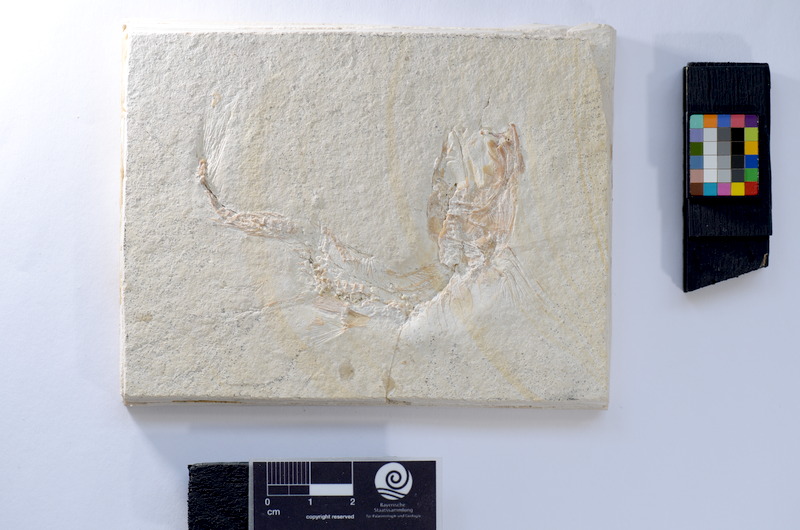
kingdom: Animalia
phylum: Chordata
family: Ascalaboidae
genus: Tharsis
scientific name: Tharsis dubius
